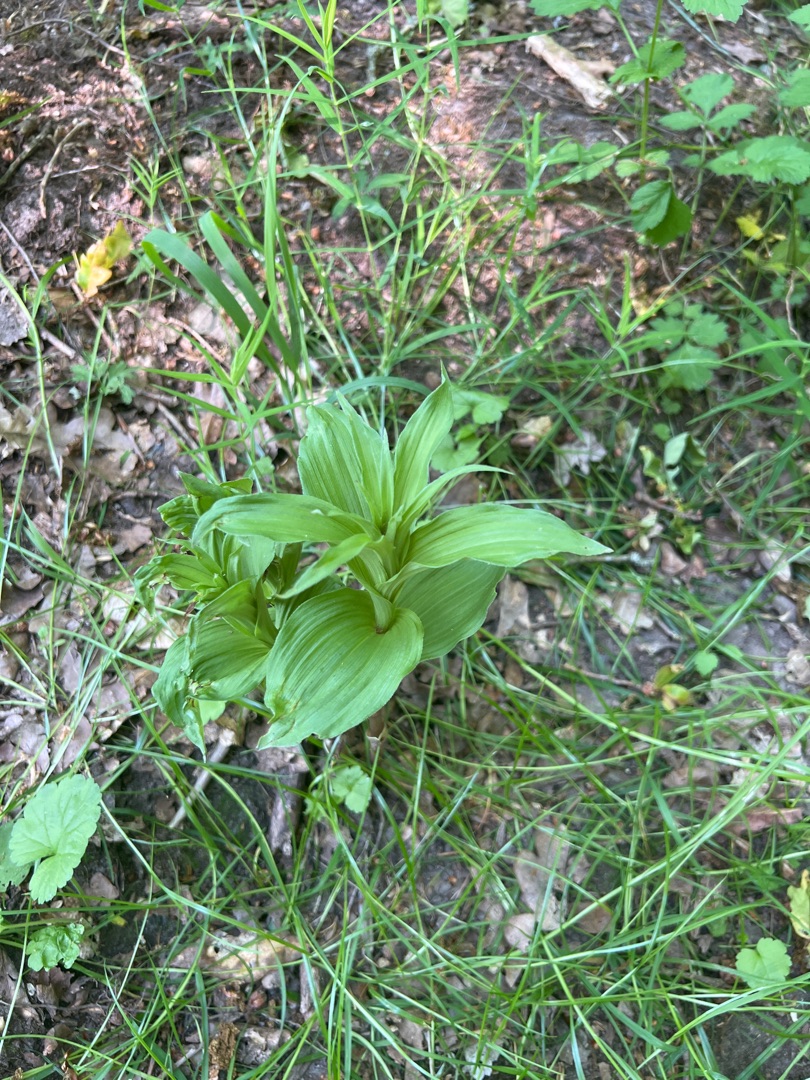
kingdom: Plantae
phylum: Tracheophyta
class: Liliopsida
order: Asparagales
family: Orchidaceae
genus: Epipactis
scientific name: Epipactis helleborine
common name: Skov-hullæbe
